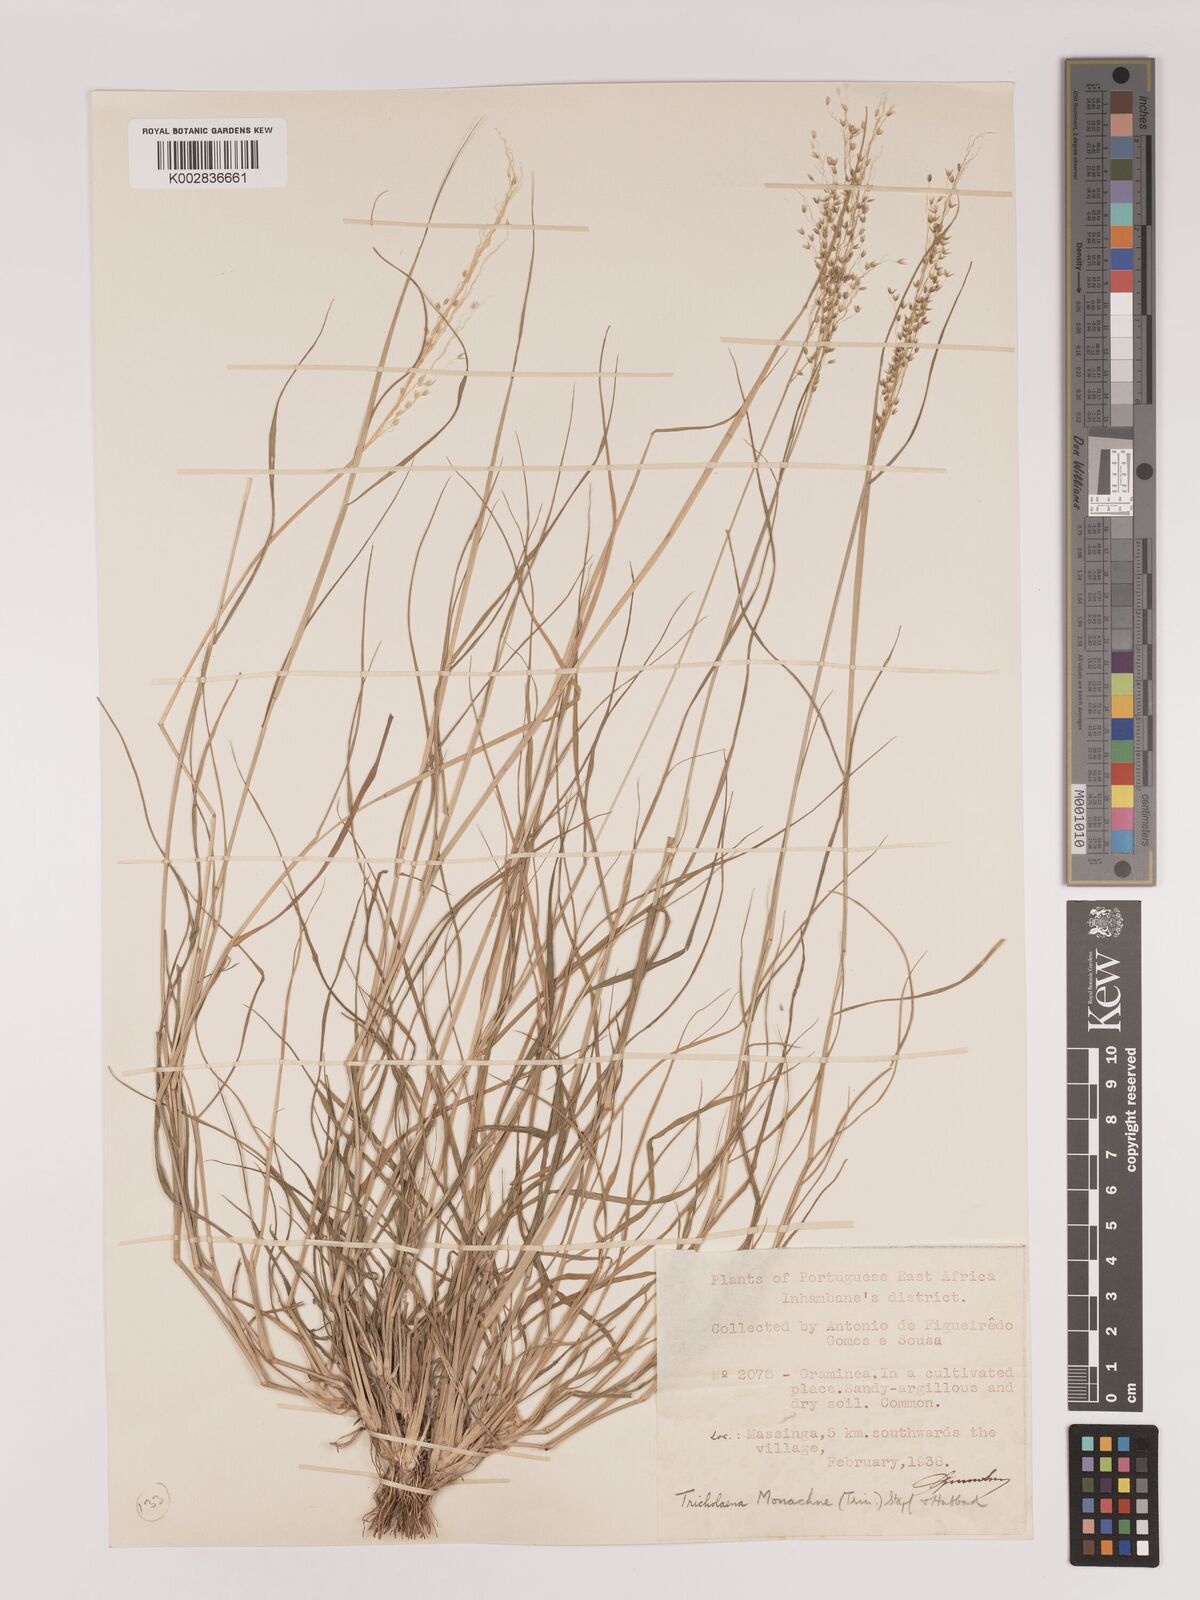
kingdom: Plantae
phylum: Tracheophyta
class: Liliopsida
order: Poales
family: Poaceae
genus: Tricholaena
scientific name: Tricholaena monachne
